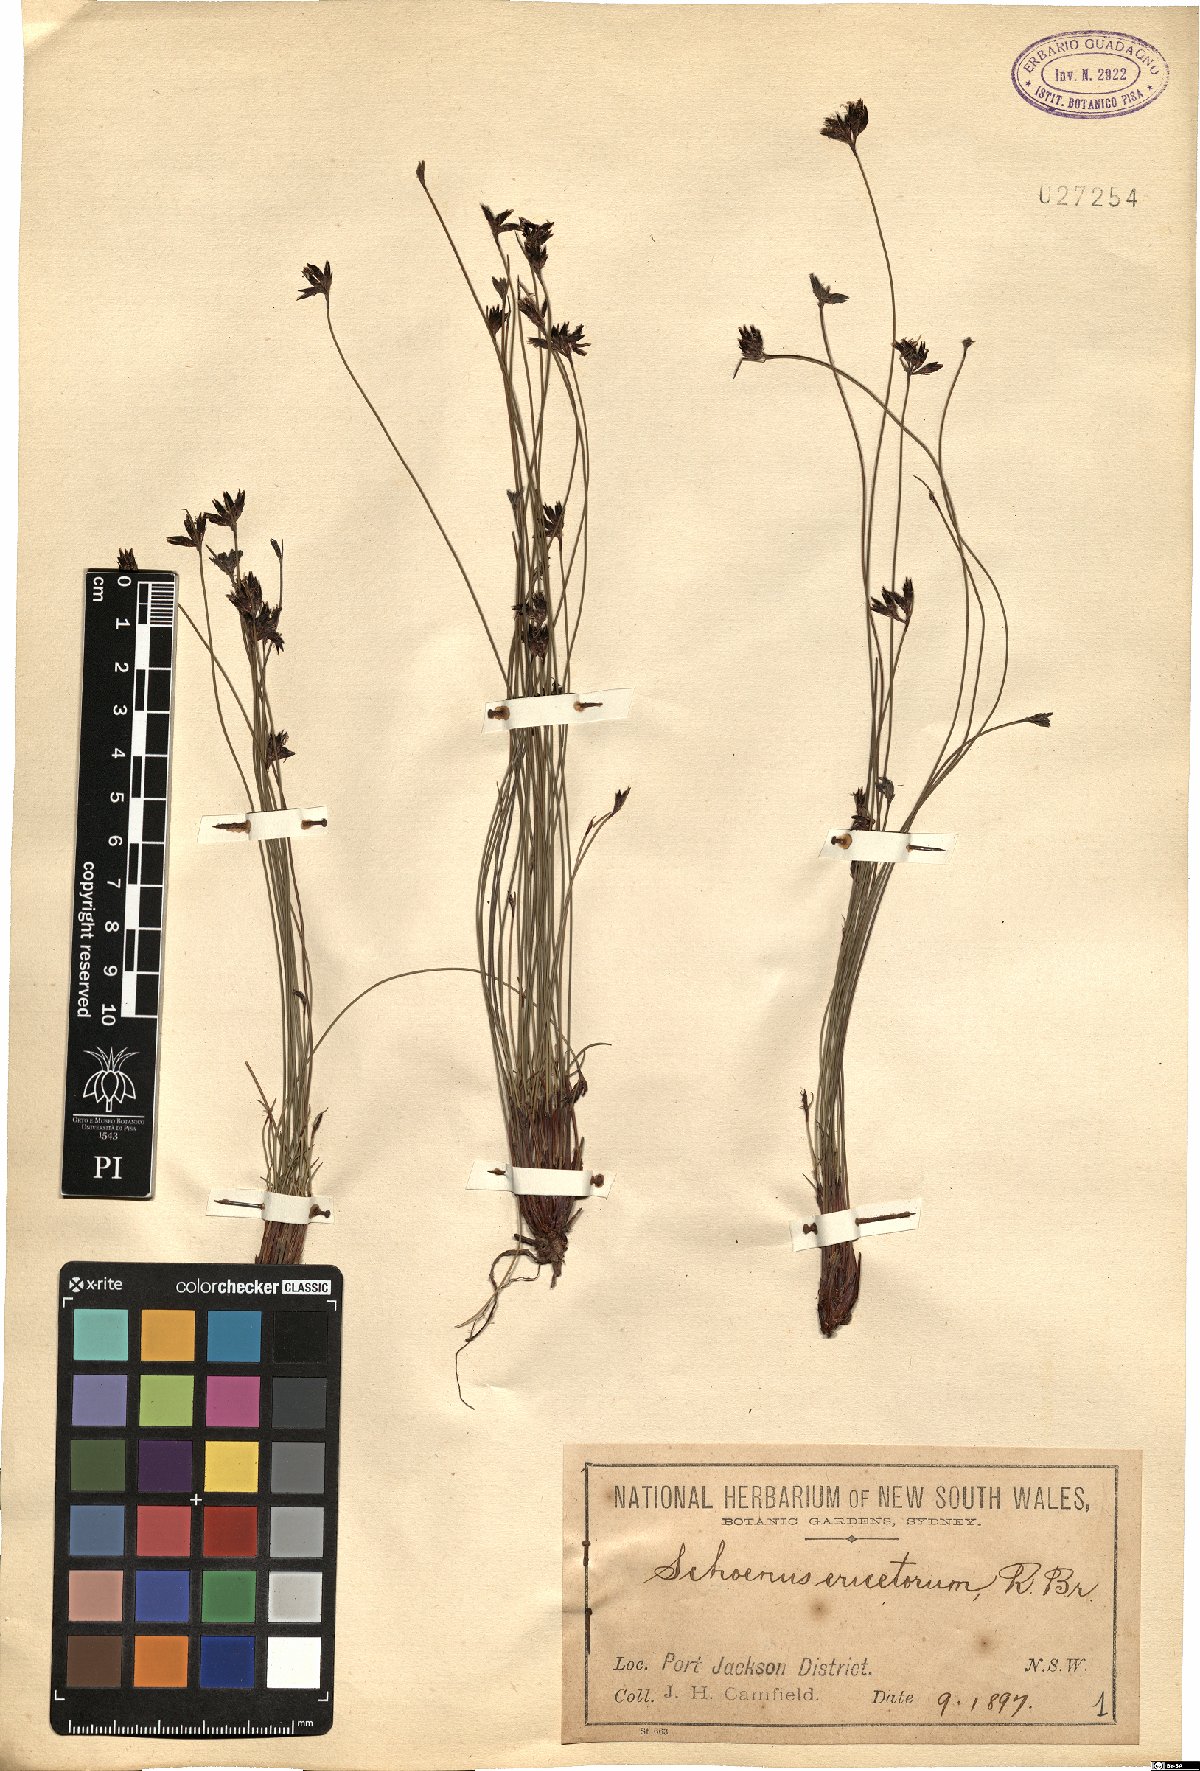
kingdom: Plantae
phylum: Tracheophyta
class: Liliopsida
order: Poales
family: Cyperaceae
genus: Schoenus
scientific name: Schoenus ericetorum
